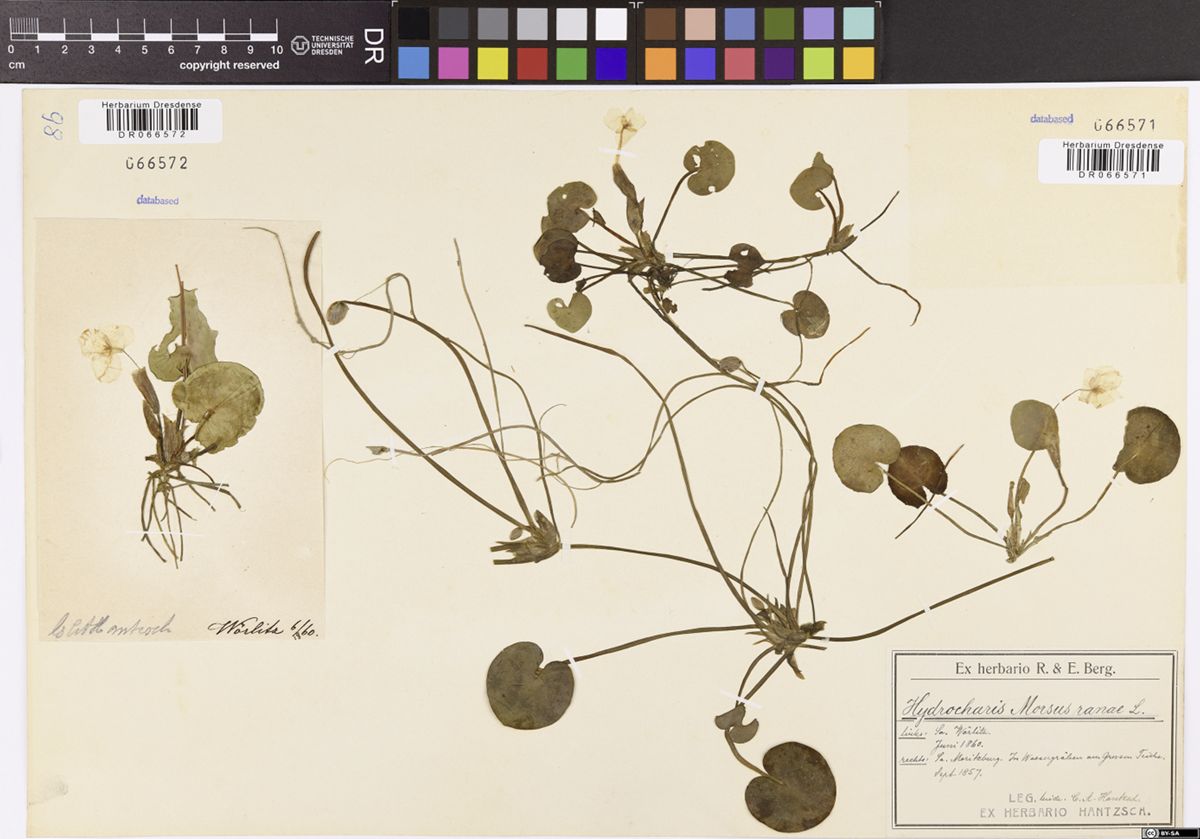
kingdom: Plantae
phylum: Tracheophyta
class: Liliopsida
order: Alismatales
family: Hydrocharitaceae
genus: Hydrocharis
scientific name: Hydrocharis morsus-ranae
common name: Frogbit
